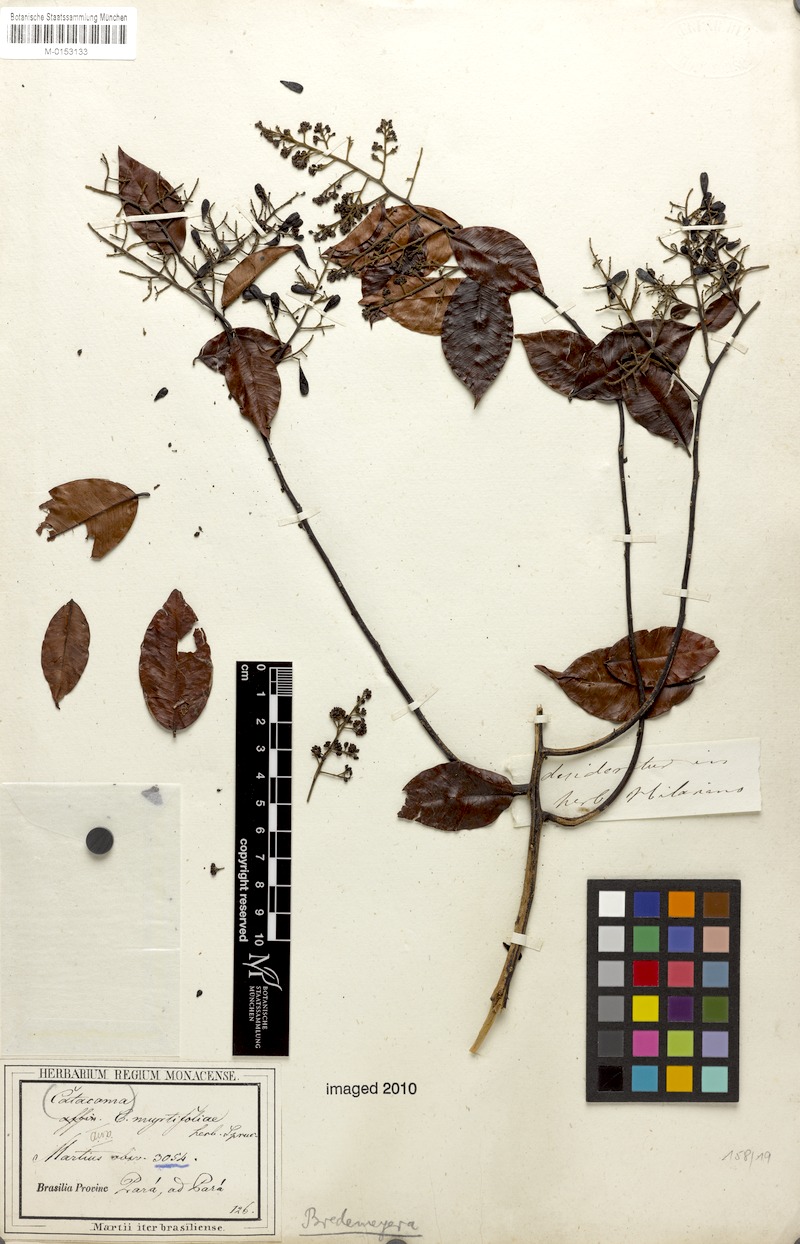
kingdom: Plantae
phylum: Tracheophyta
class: Magnoliopsida
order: Fabales
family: Polygalaceae
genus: Bredemeyera
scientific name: Bredemeyera myrtifolia
